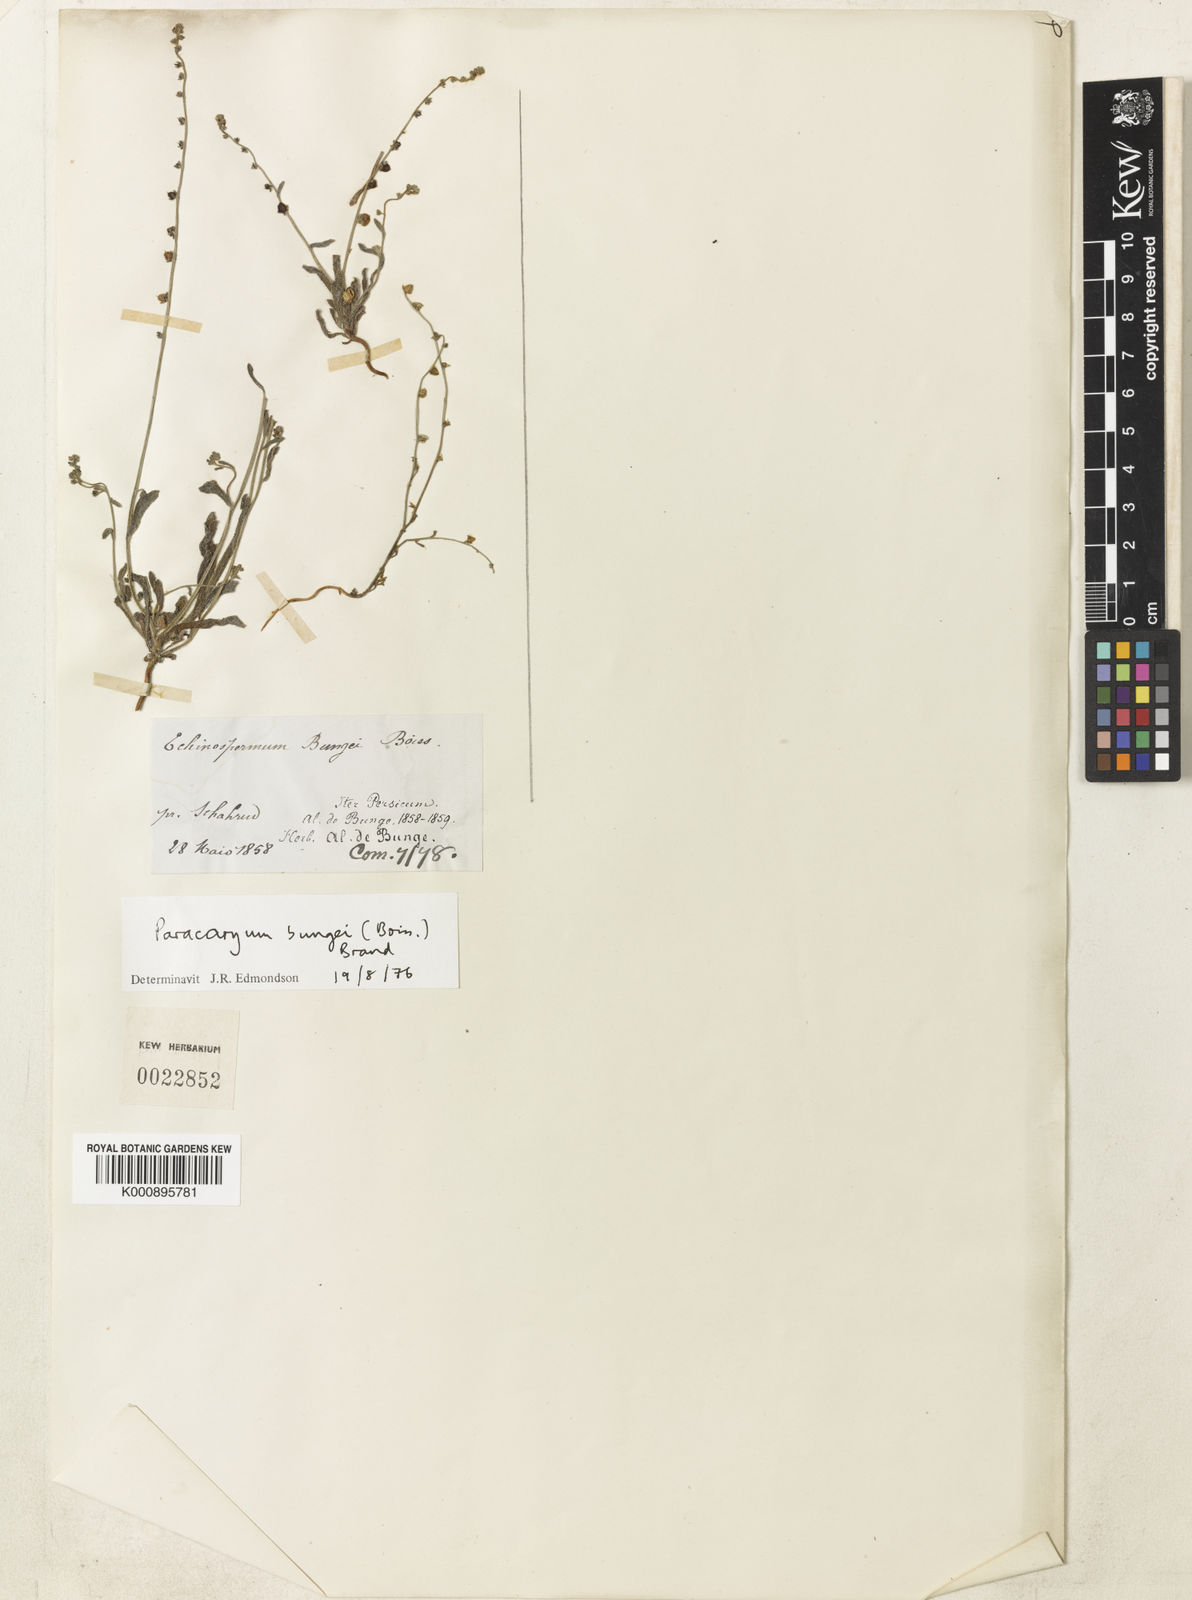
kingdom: Plantae
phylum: Tracheophyta
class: Magnoliopsida
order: Boraginales
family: Boraginaceae
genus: Microparacaryum
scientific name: Microparacaryum intermedium
